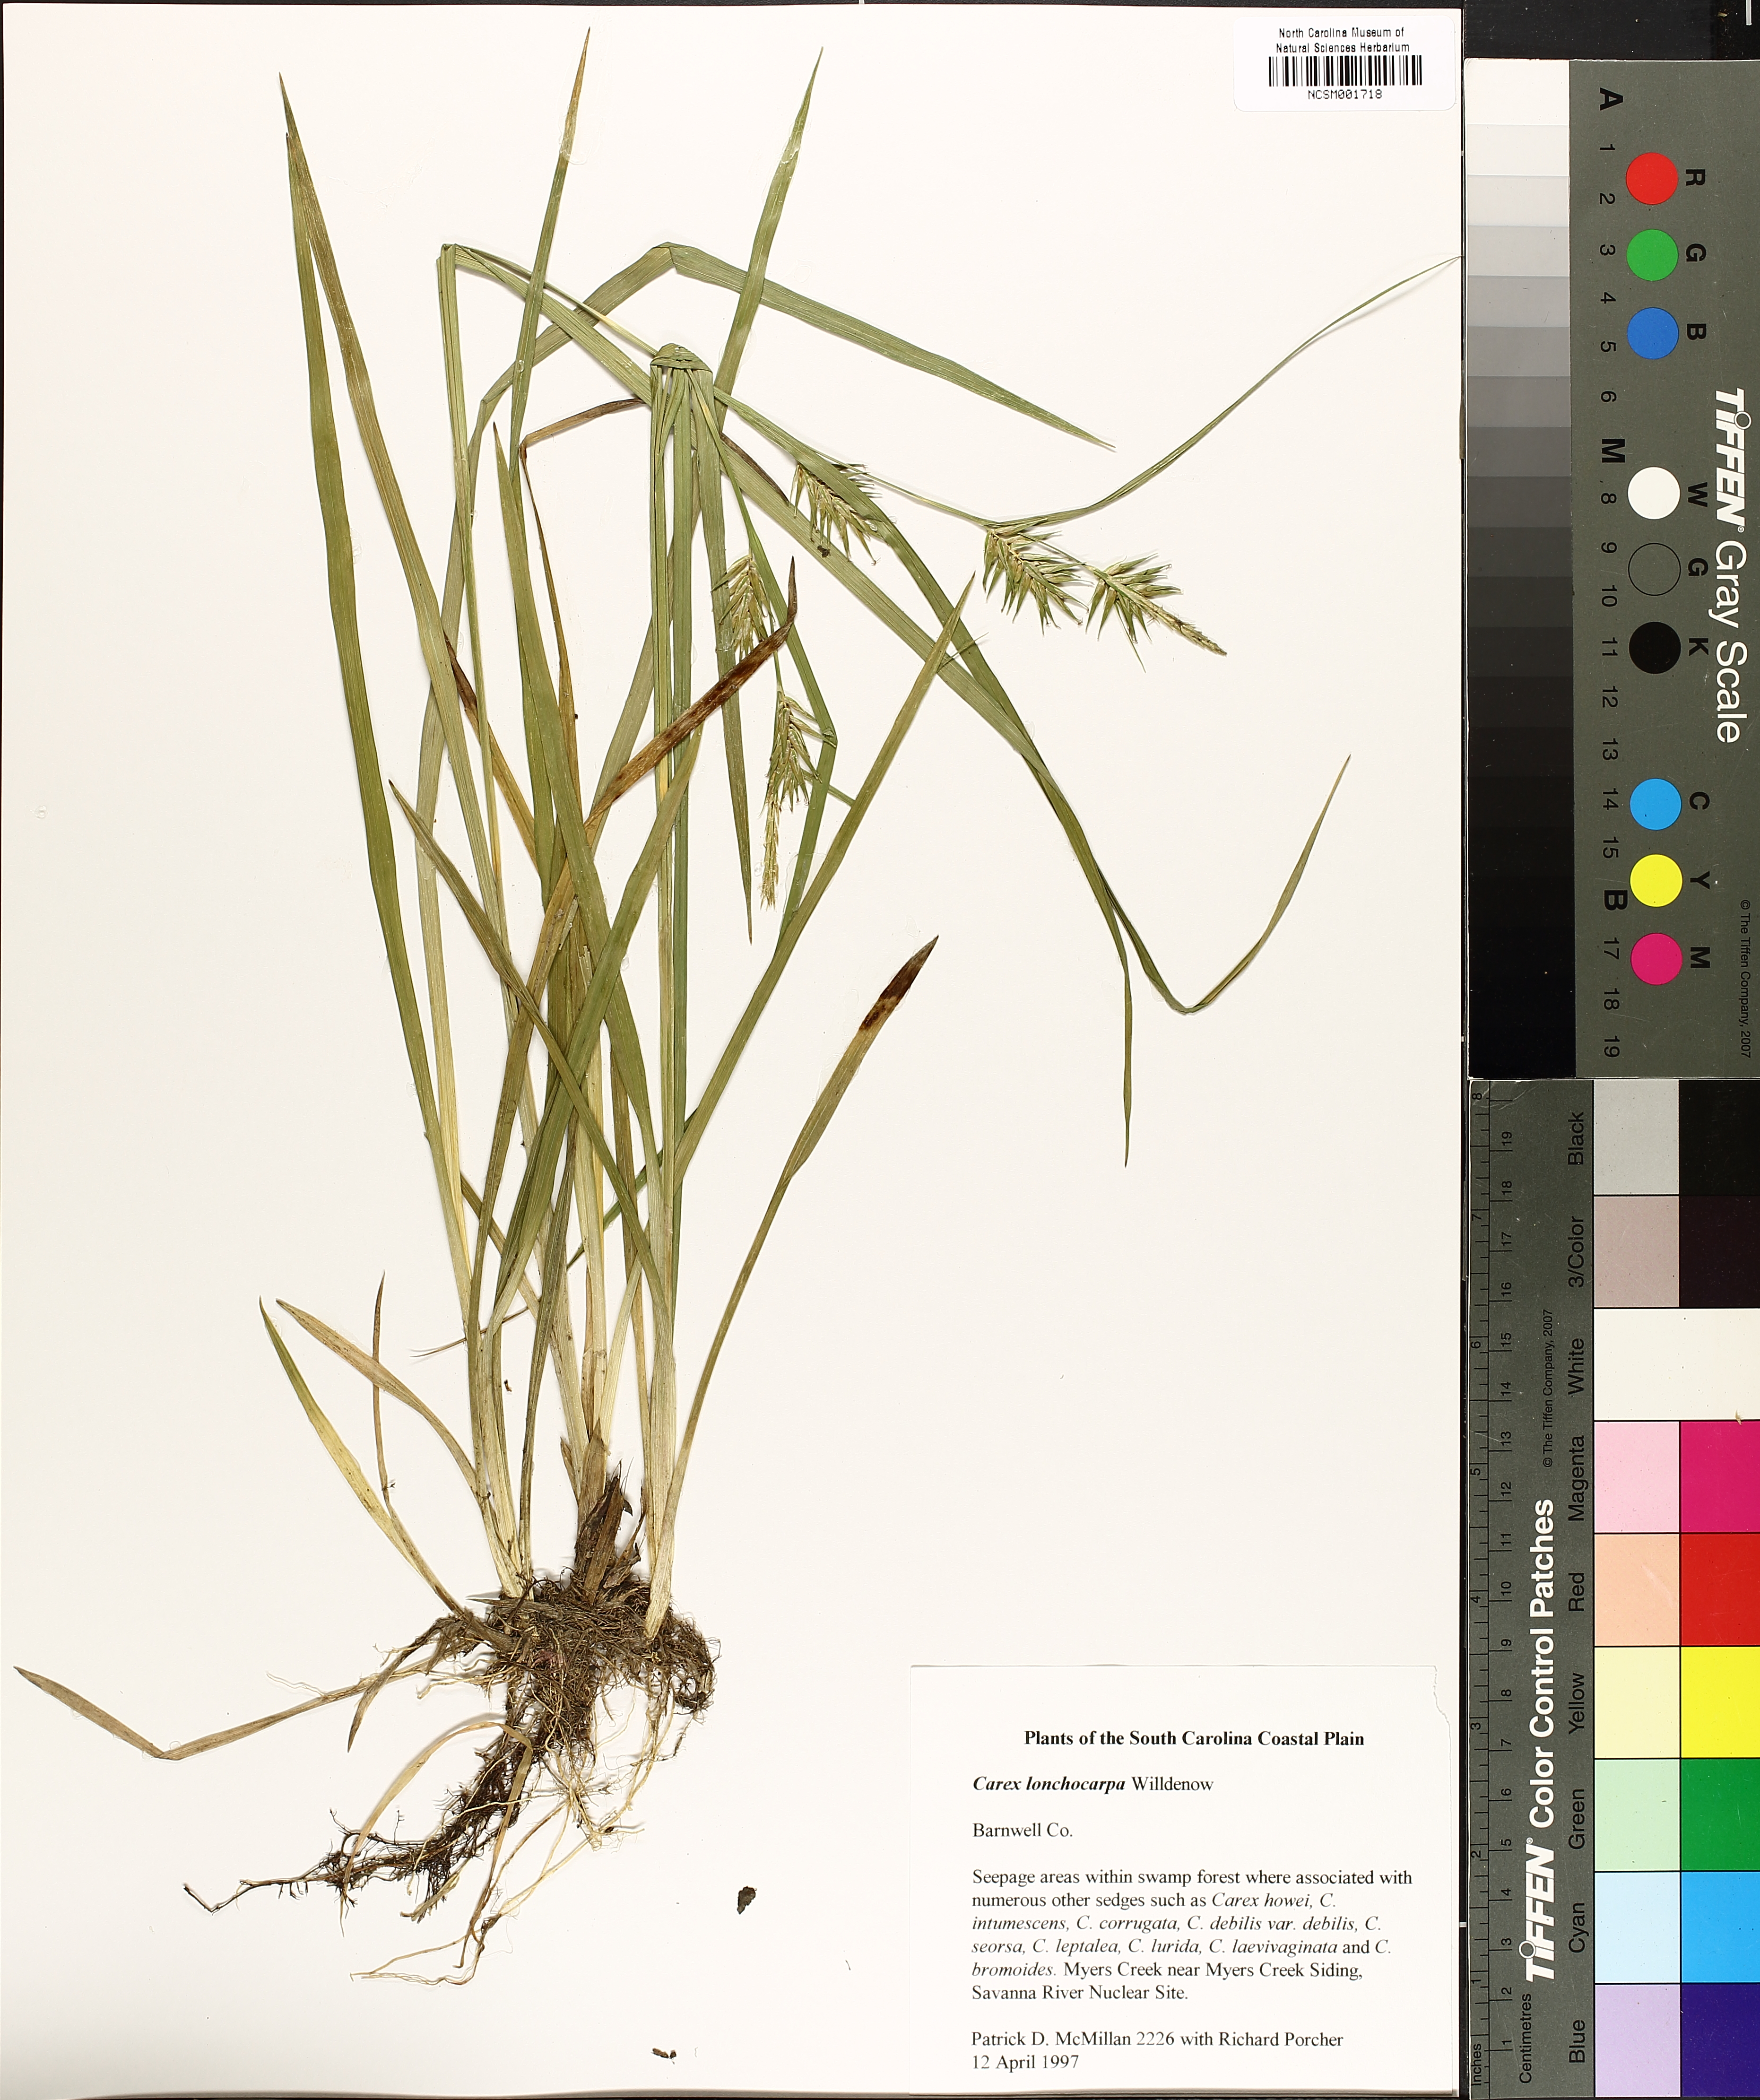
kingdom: Plantae
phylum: Tracheophyta
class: Liliopsida
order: Poales
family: Cyperaceae
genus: Carex
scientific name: Carex lonchocarpa
